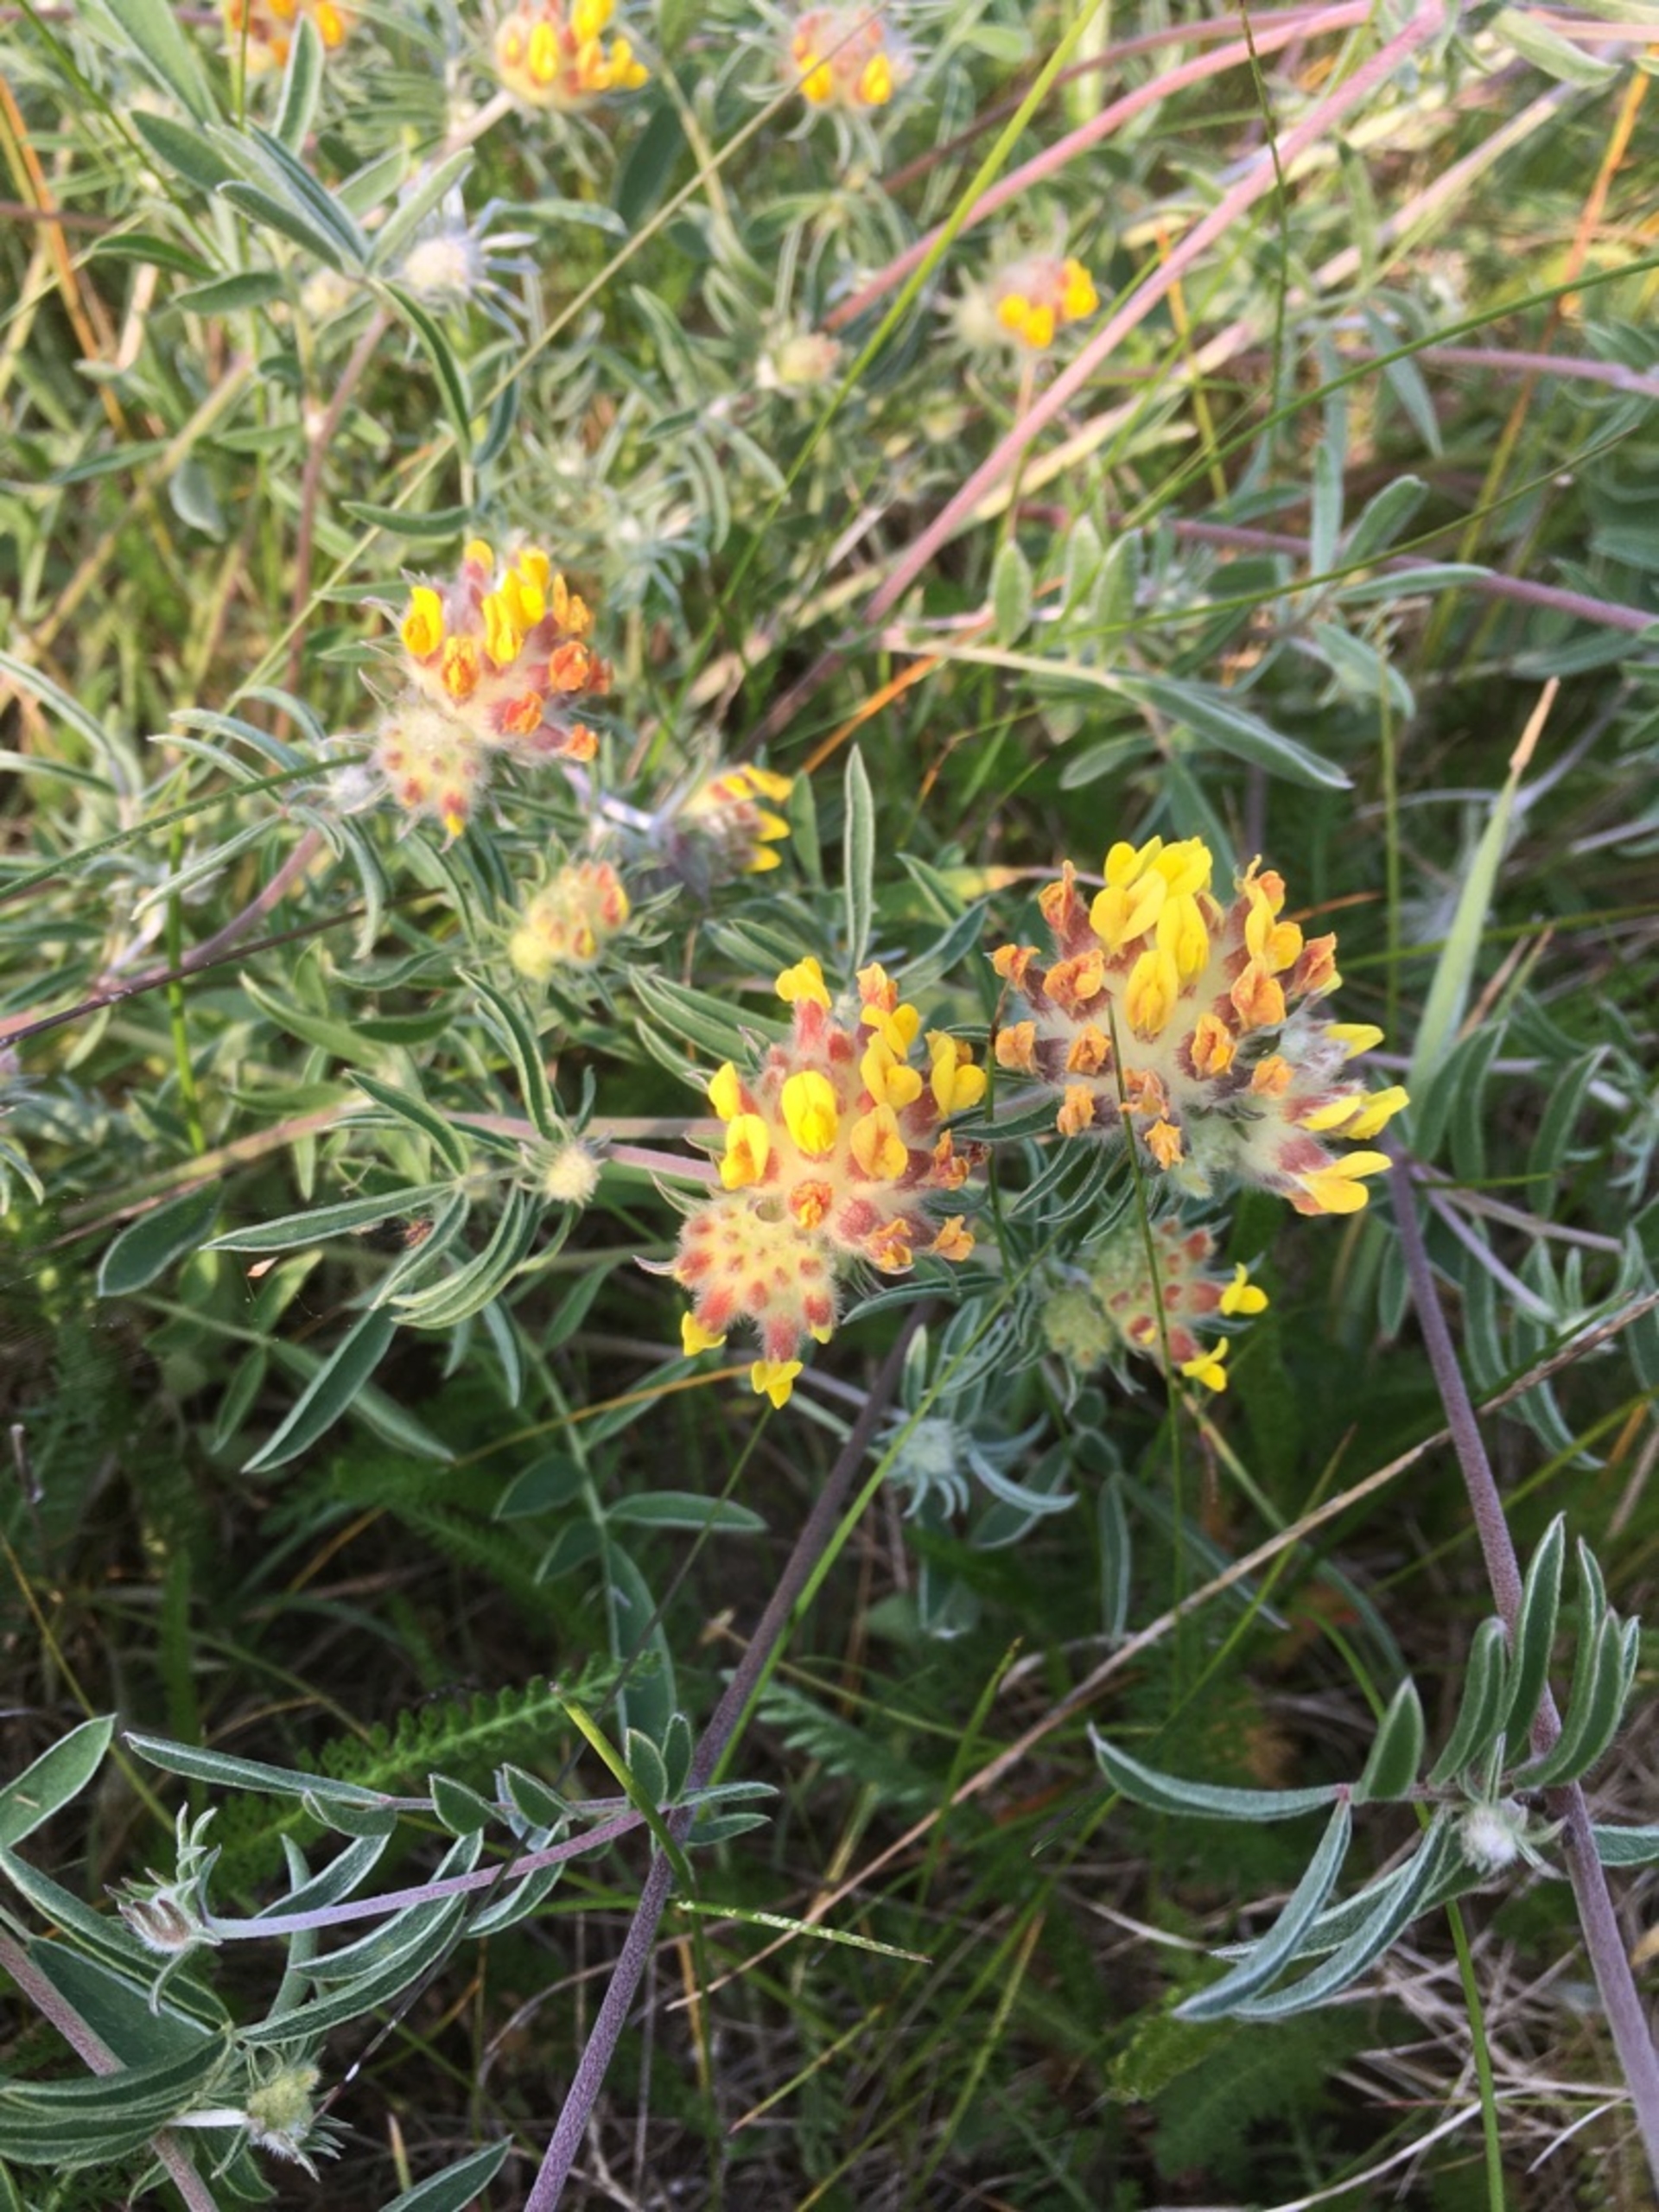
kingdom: Plantae
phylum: Tracheophyta
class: Magnoliopsida
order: Fabales
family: Fabaceae
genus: Anthyllis
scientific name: Anthyllis vulneraria
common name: Rundbælg
